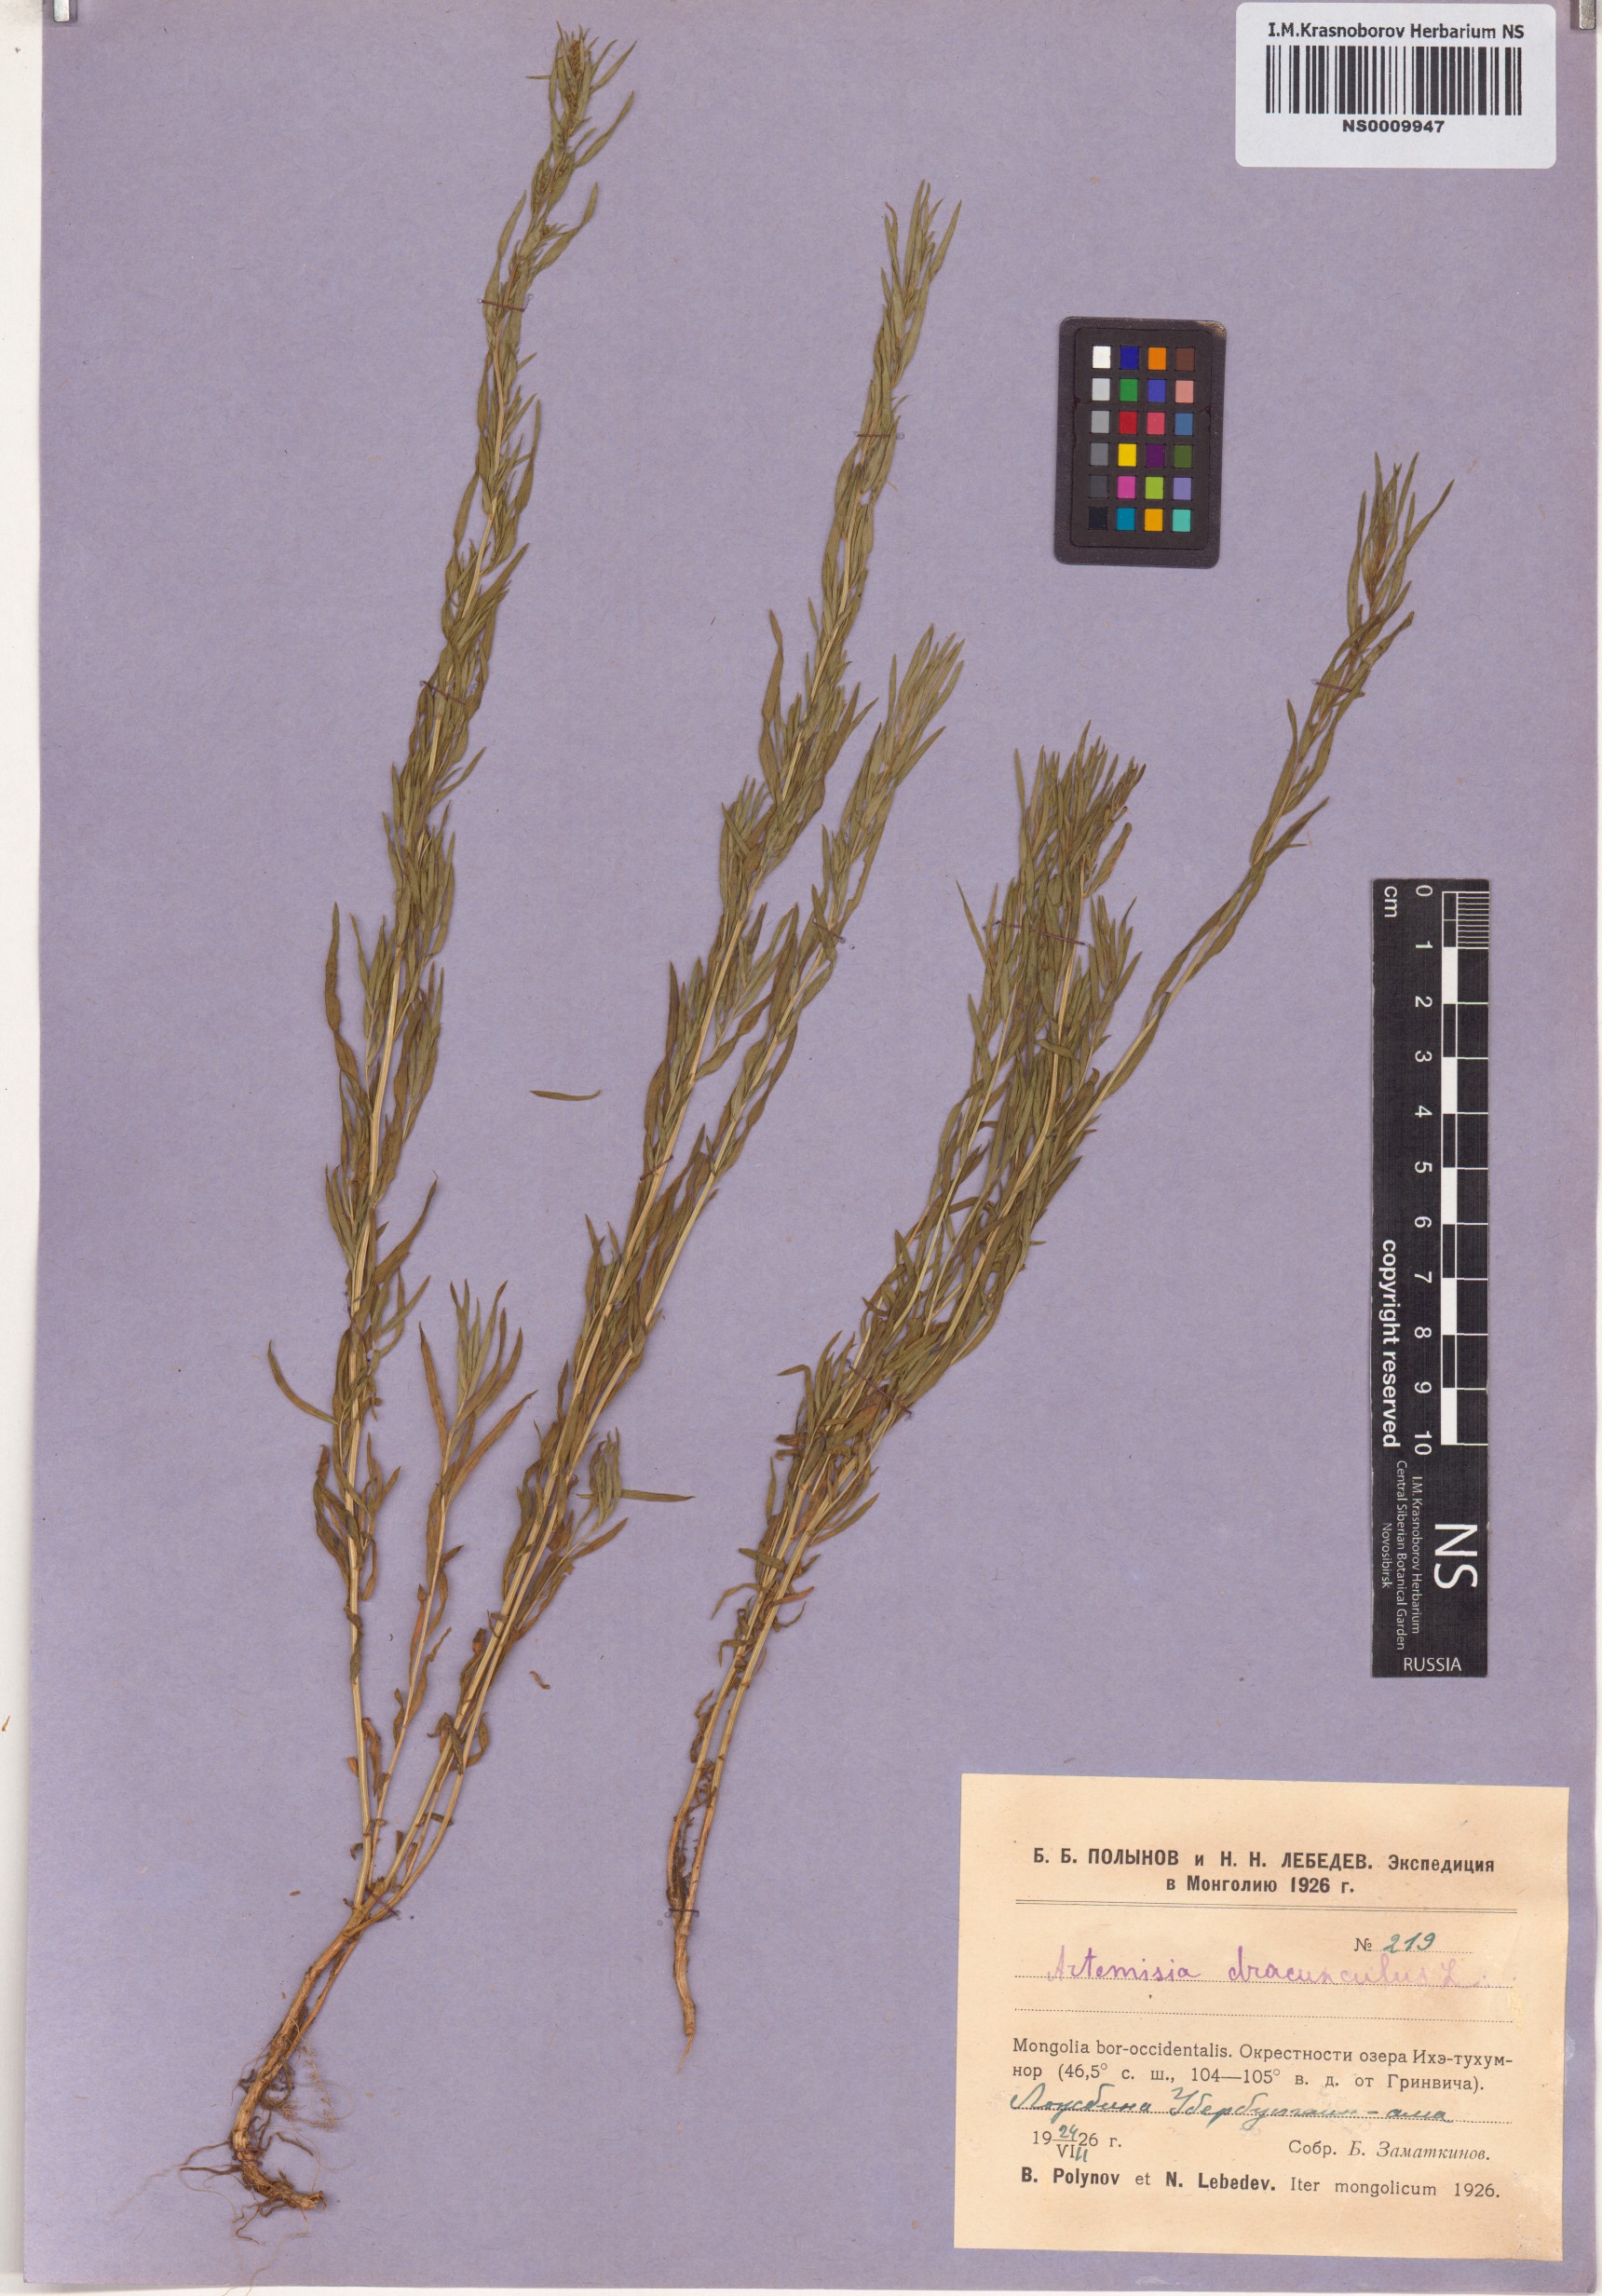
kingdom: Plantae
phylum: Tracheophyta
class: Magnoliopsida
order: Asterales
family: Asteraceae
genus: Artemisia
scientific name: Artemisia dracunculus
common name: Tarragon
